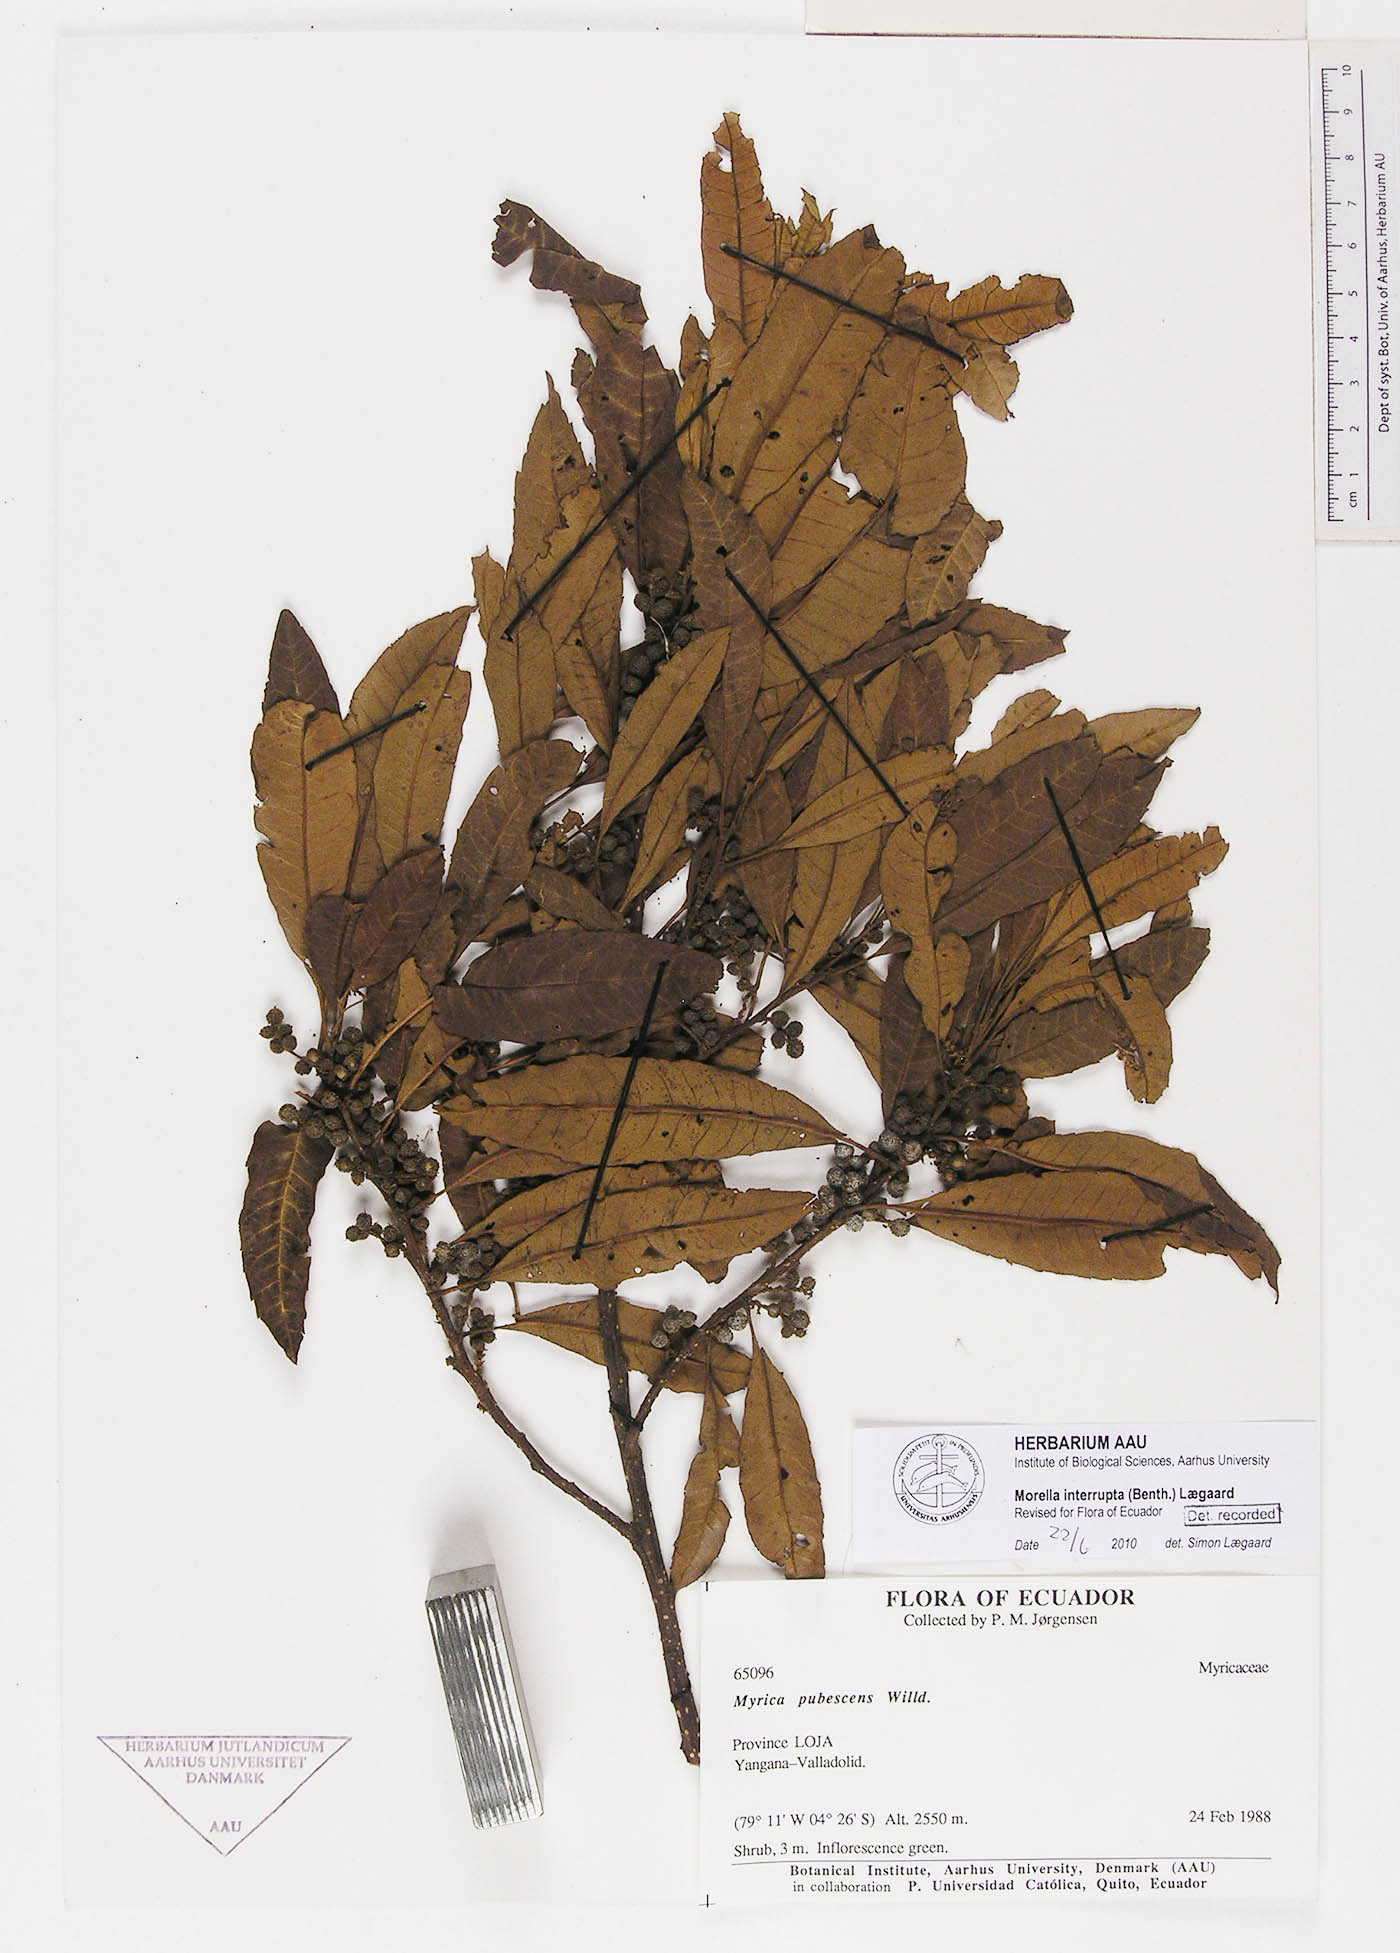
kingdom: Plantae
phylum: Tracheophyta
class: Magnoliopsida
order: Fagales
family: Myricaceae
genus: Morella
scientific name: Morella interrupta
